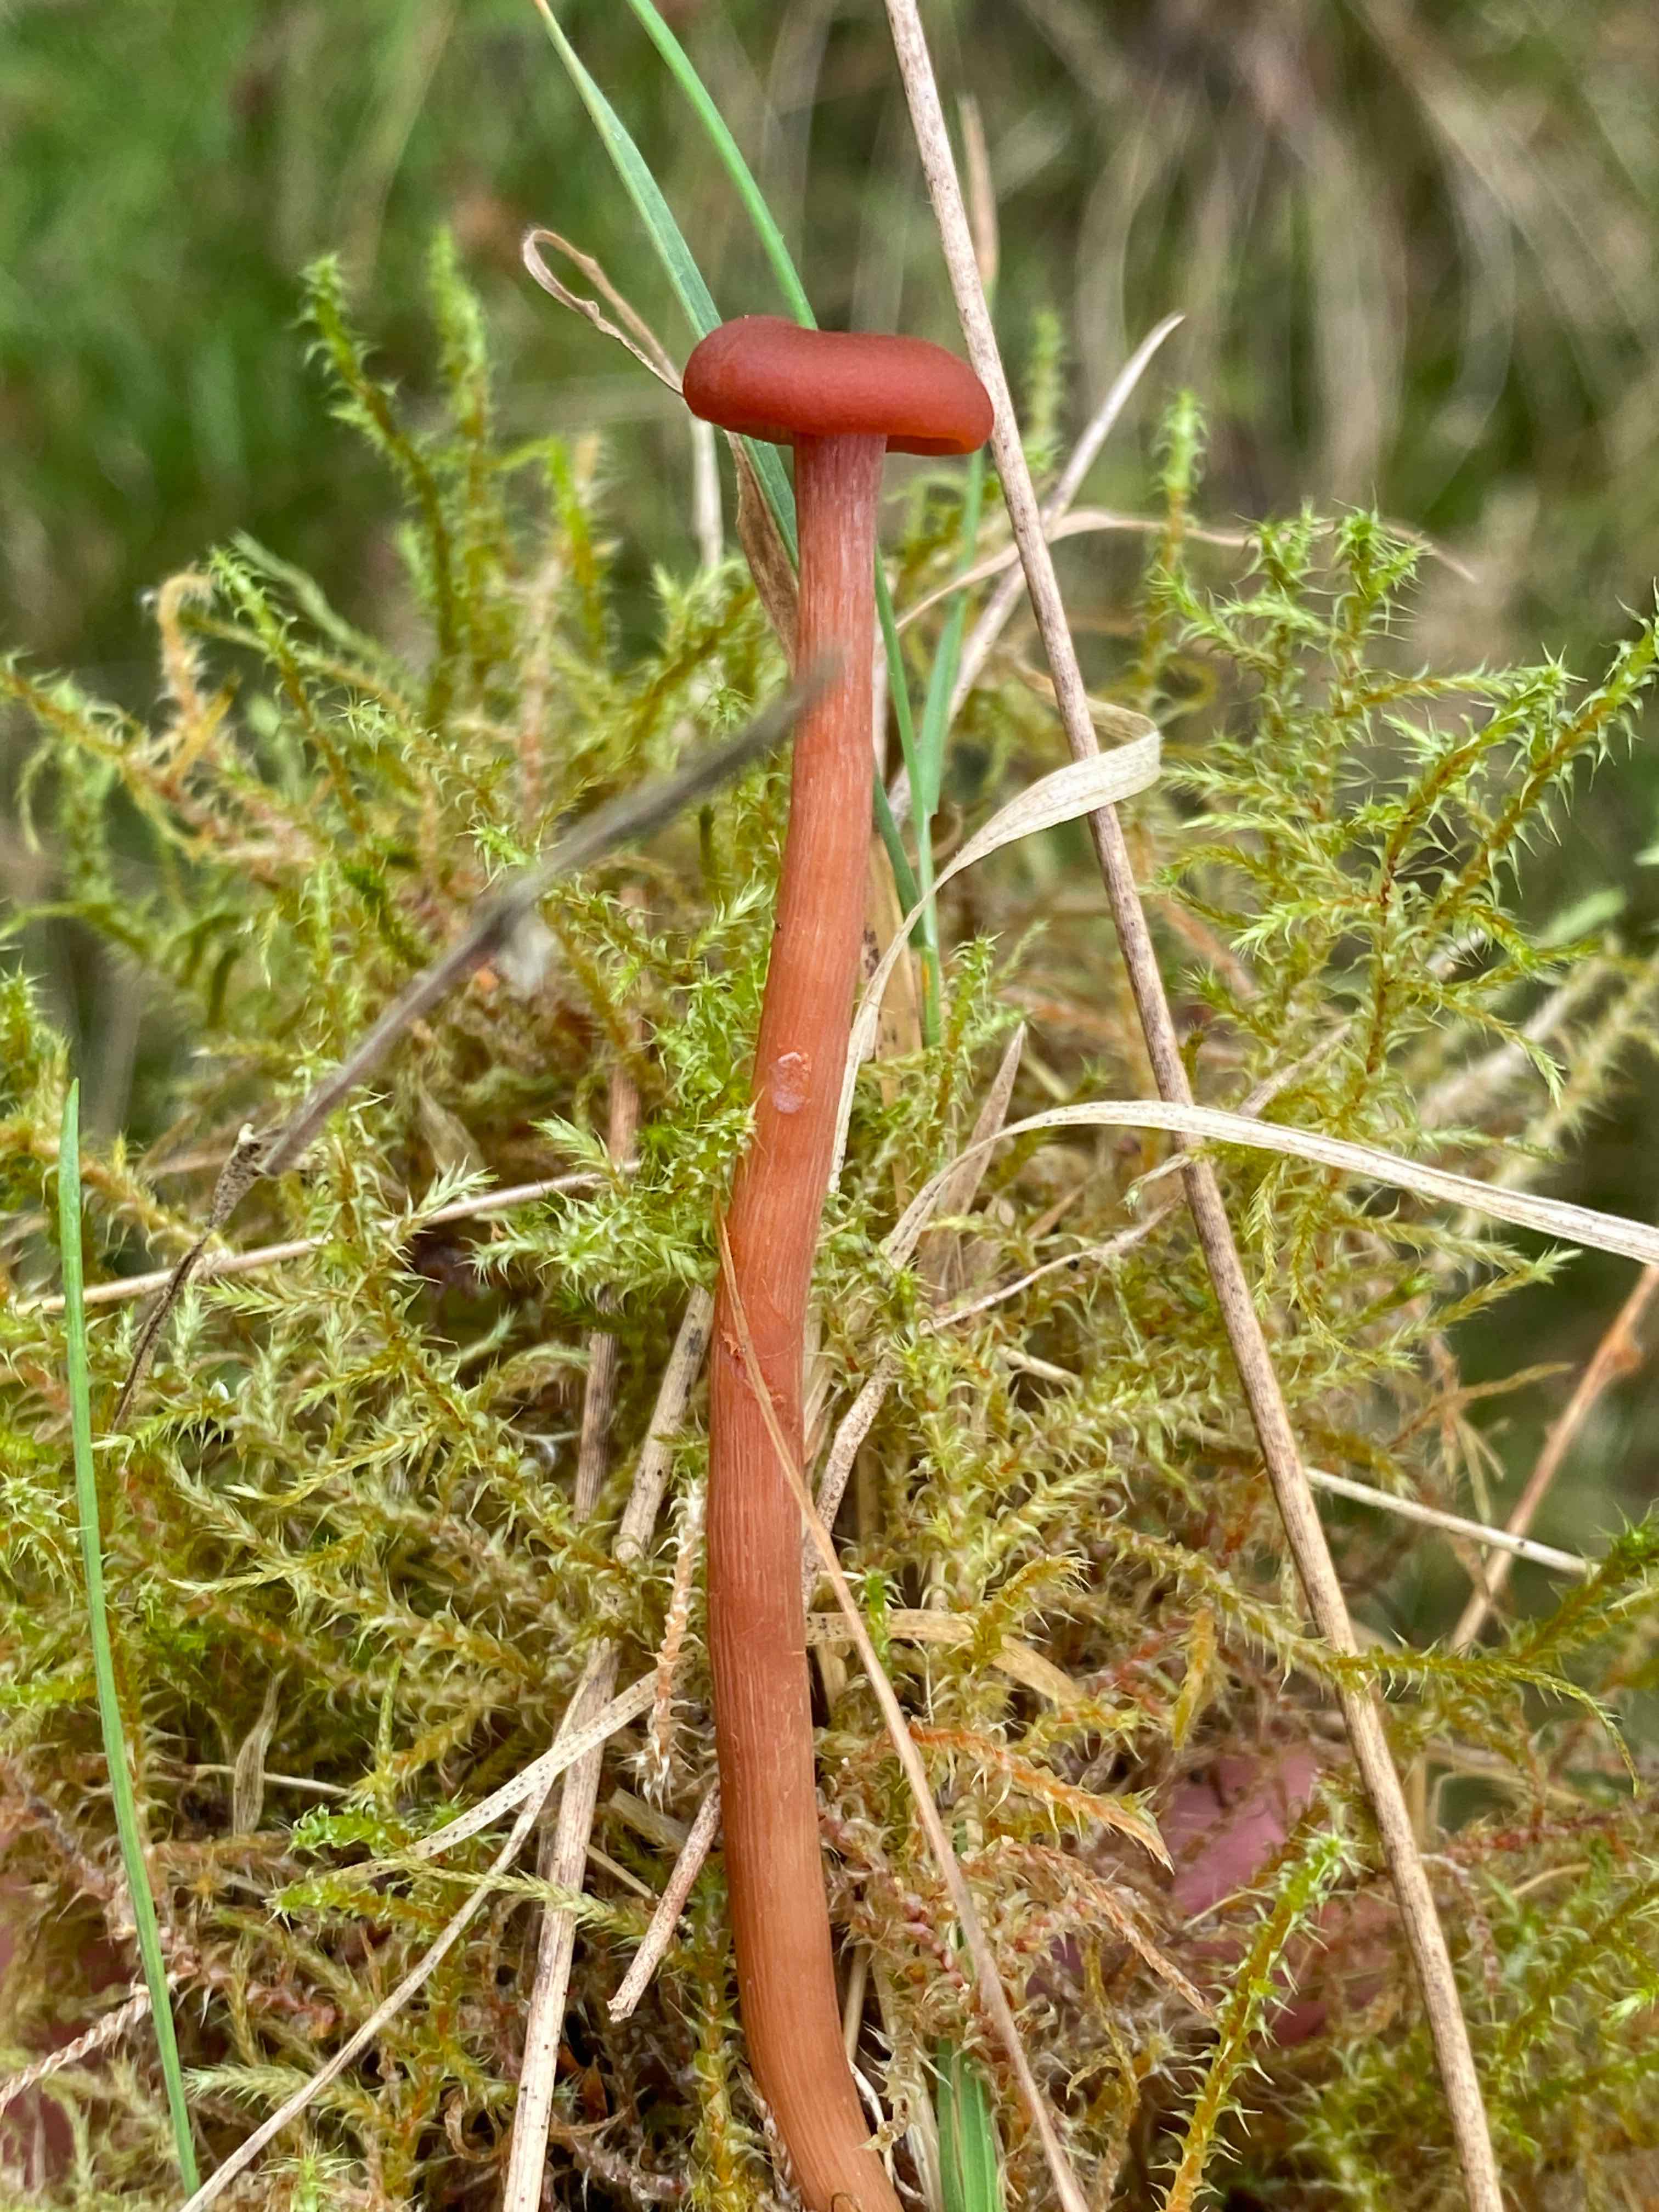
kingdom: Fungi
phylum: Basidiomycota
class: Agaricomycetes
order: Agaricales
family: Hydnangiaceae
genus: Laccaria
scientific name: Laccaria laccata
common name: rød ametysthat
